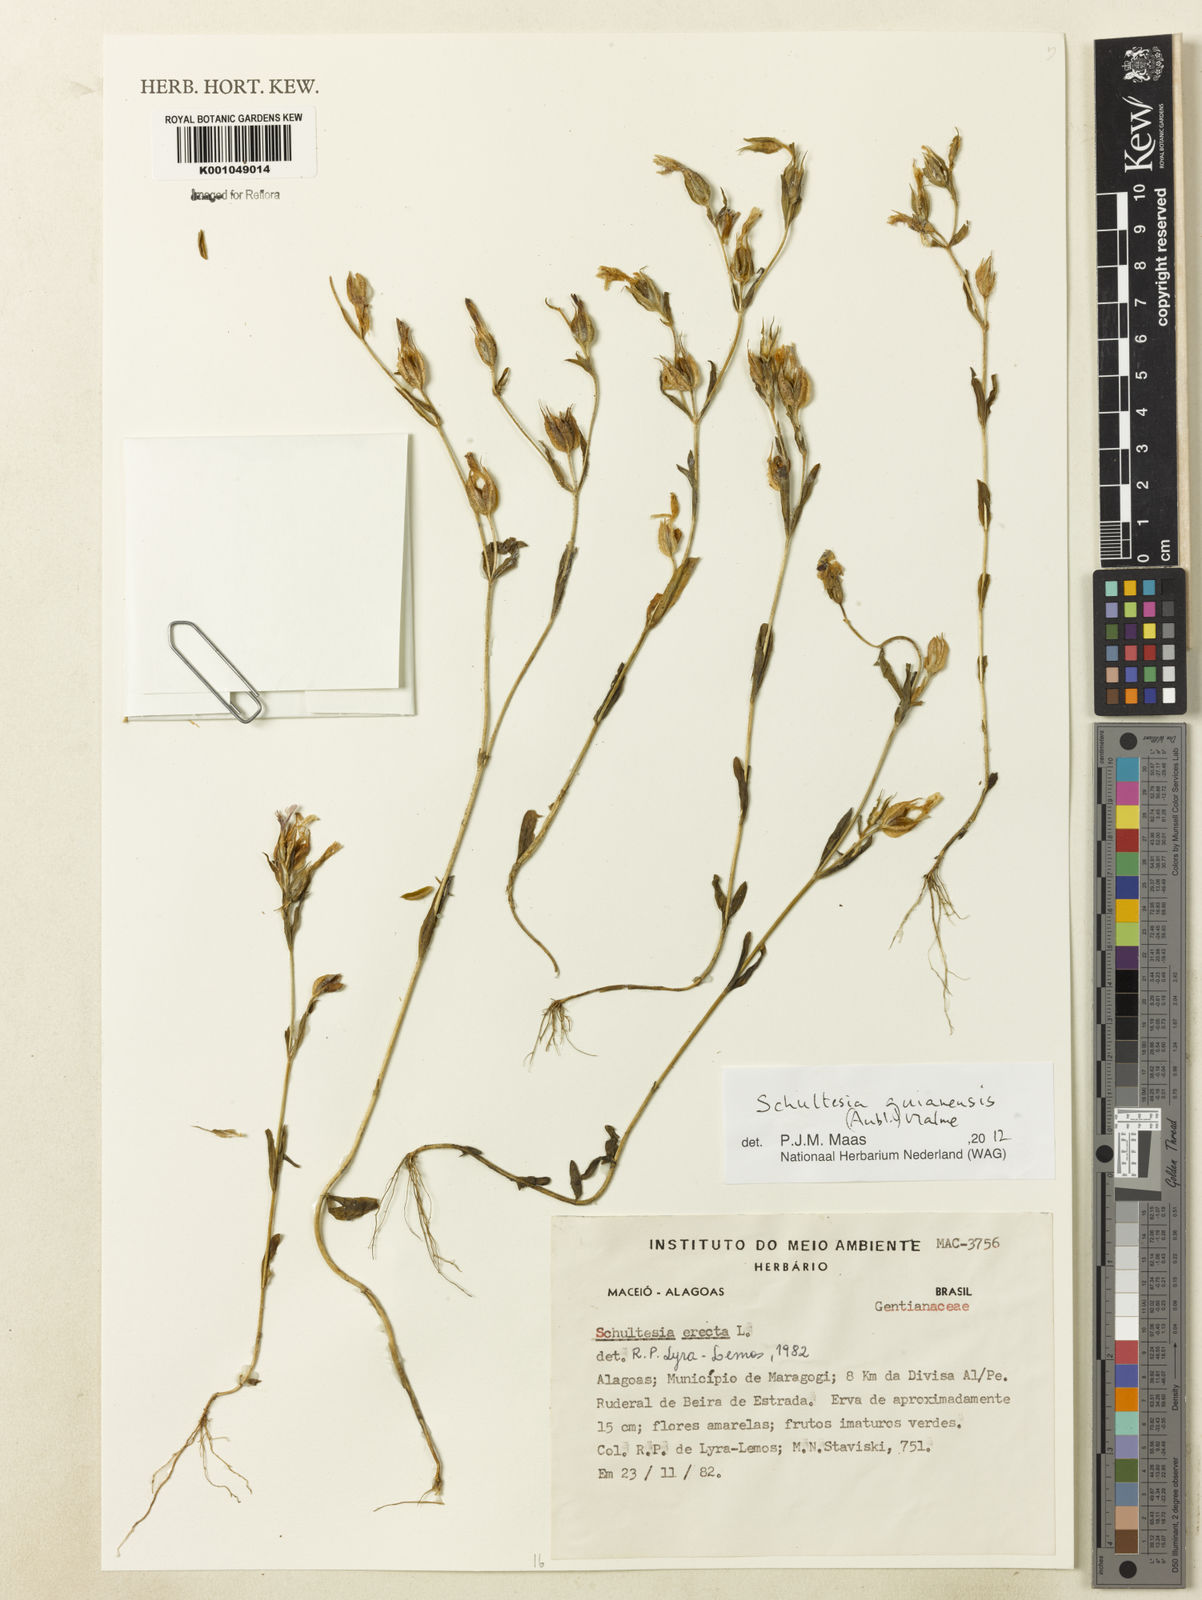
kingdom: Plantae
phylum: Tracheophyta
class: Magnoliopsida
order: Gentianales
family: Gentianaceae
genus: Schultesia
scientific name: Schultesia guianensis
